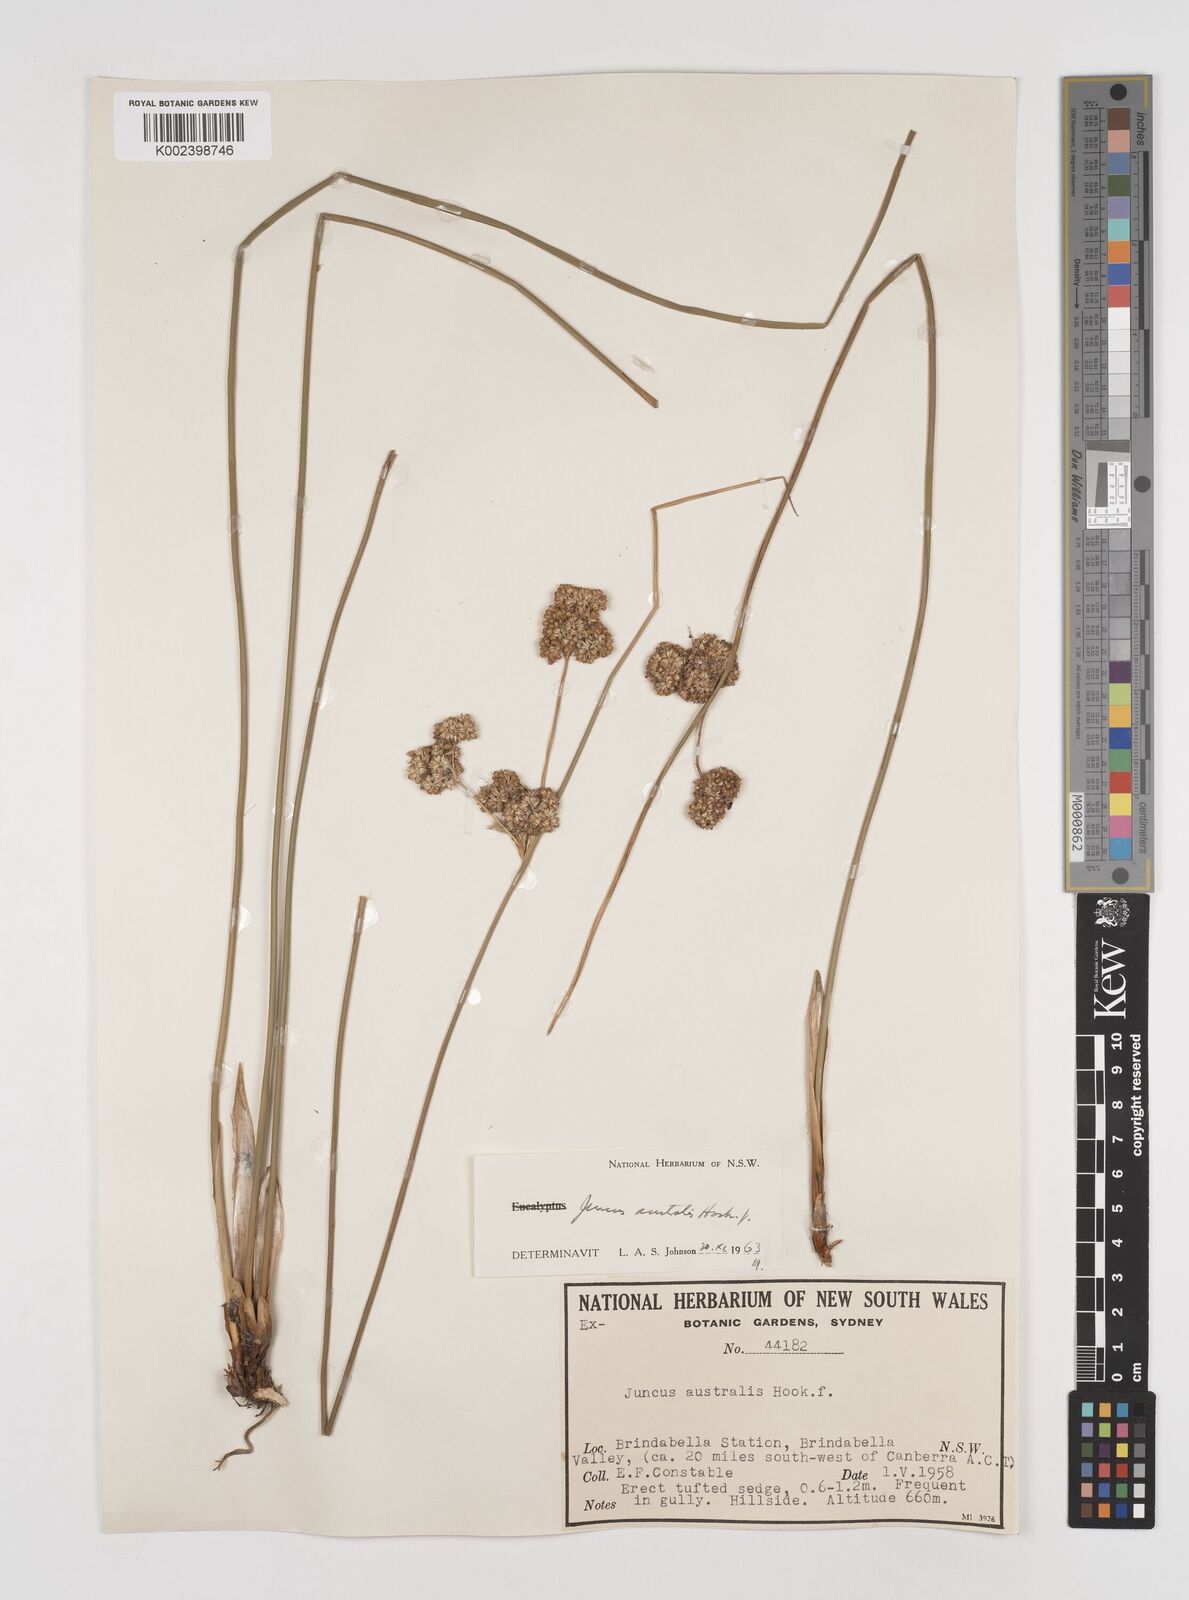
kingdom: Plantae
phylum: Tracheophyta
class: Liliopsida
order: Poales
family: Juncaceae
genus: Juncus
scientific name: Juncus australis
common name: Austral rush
